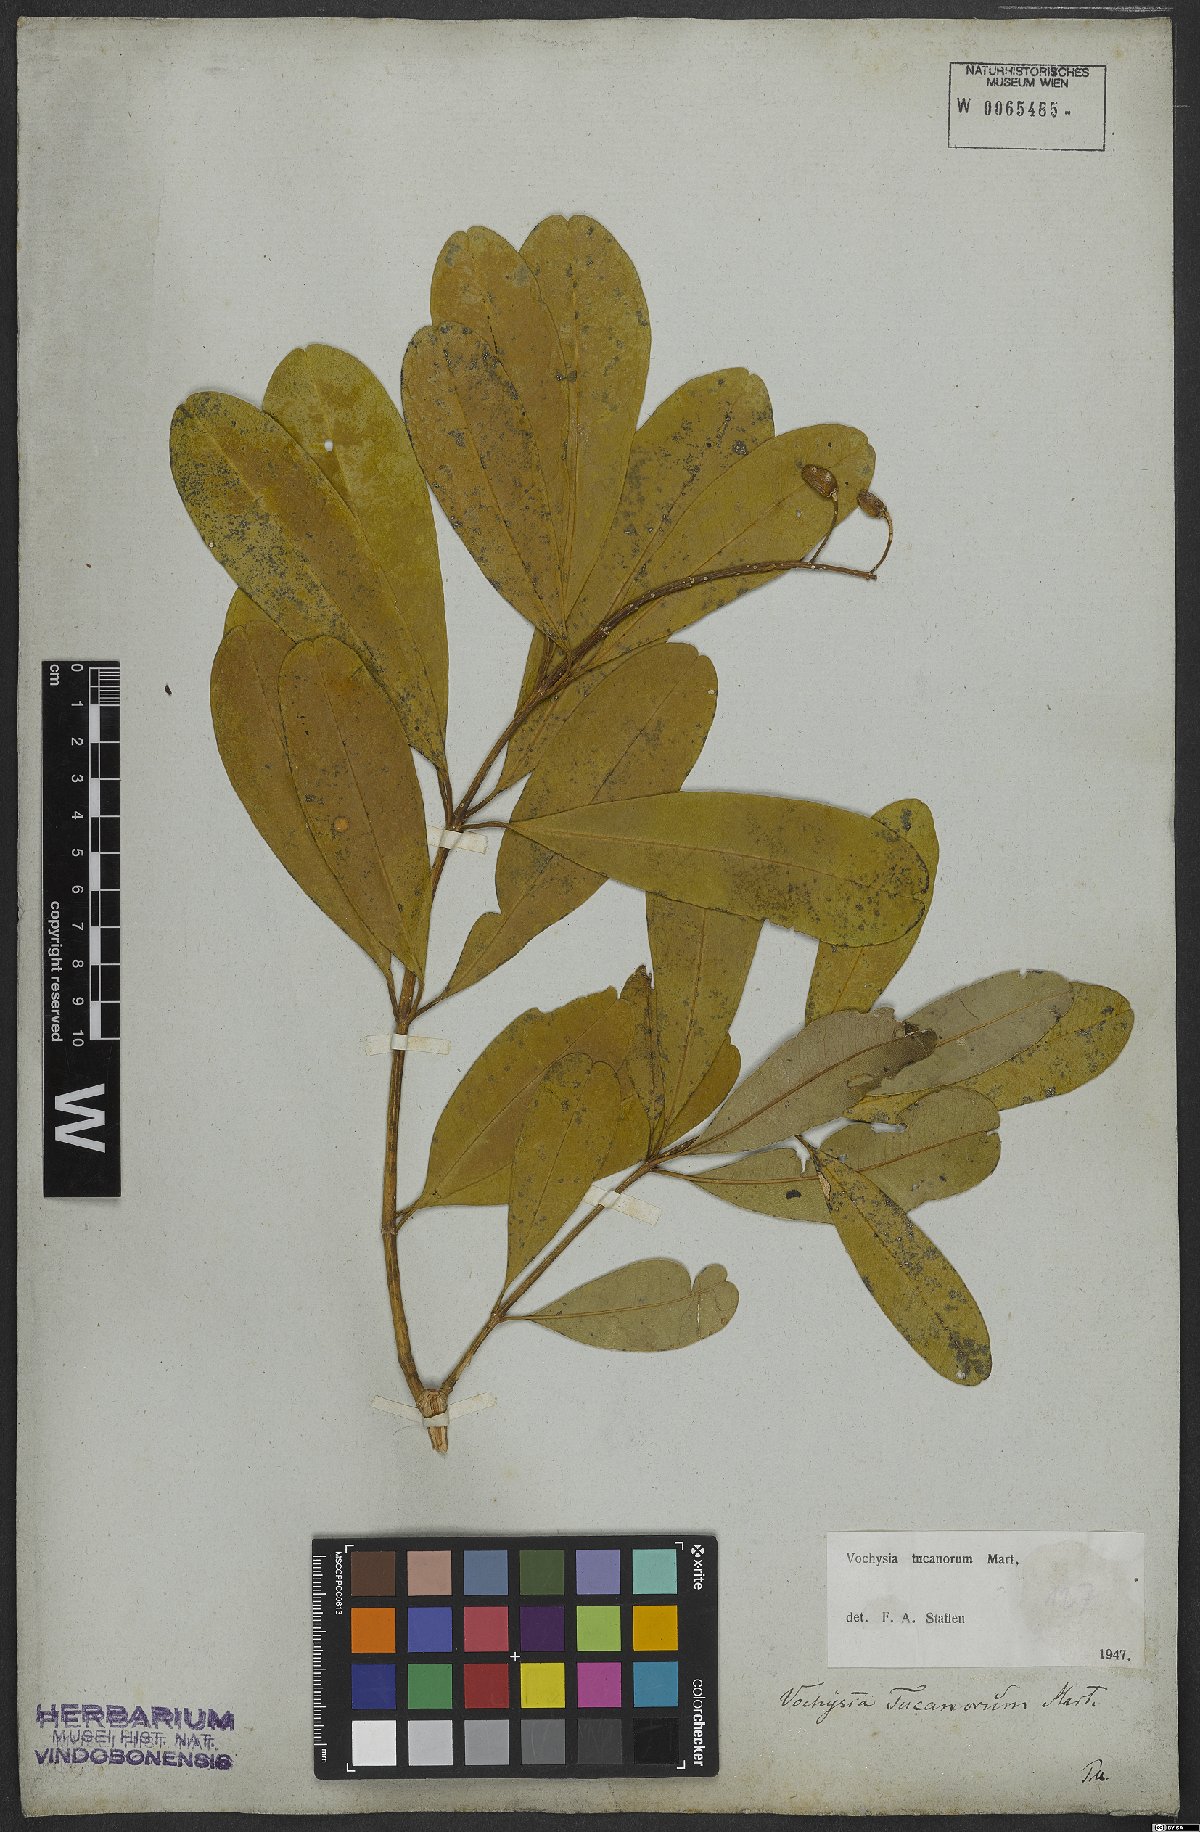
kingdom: Plantae
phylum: Tracheophyta
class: Magnoliopsida
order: Myrtales
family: Vochysiaceae
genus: Vochysia
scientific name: Vochysia tucanorum
